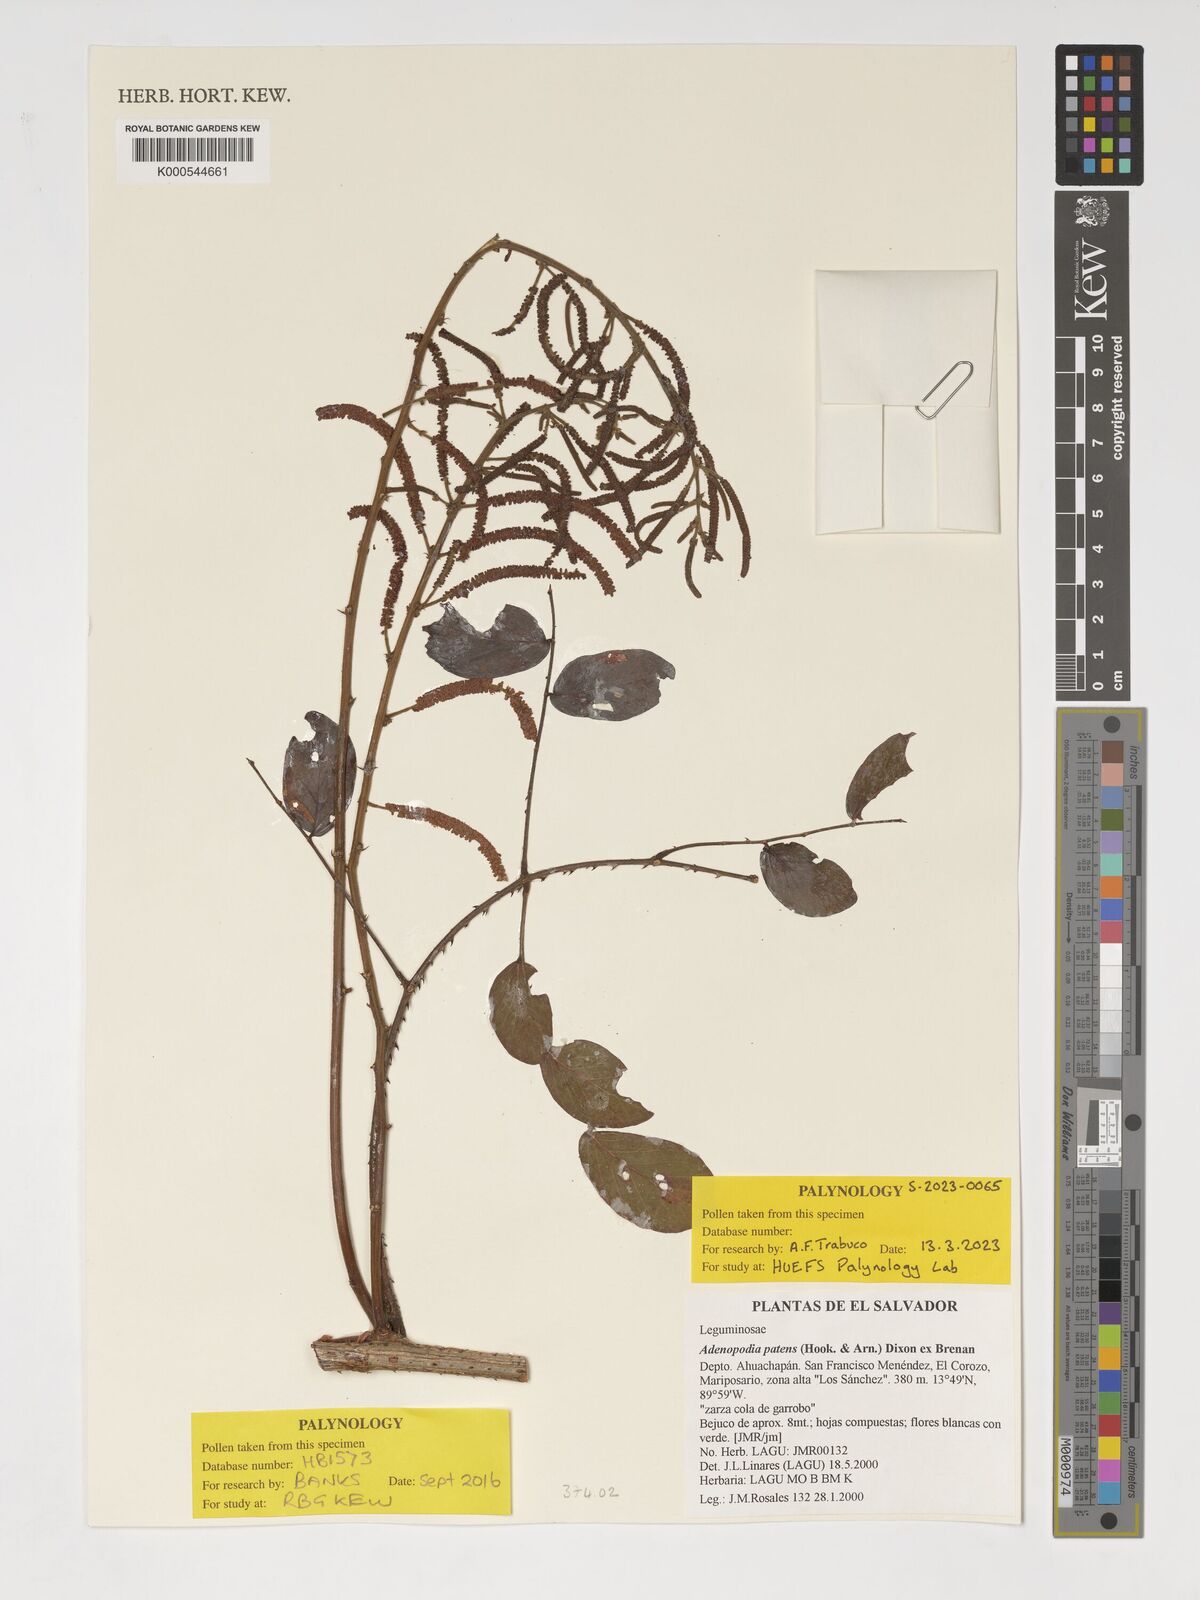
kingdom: Plantae
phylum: Tracheophyta
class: Magnoliopsida
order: Fabales
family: Fabaceae
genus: Adenopodia
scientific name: Adenopodia patens
